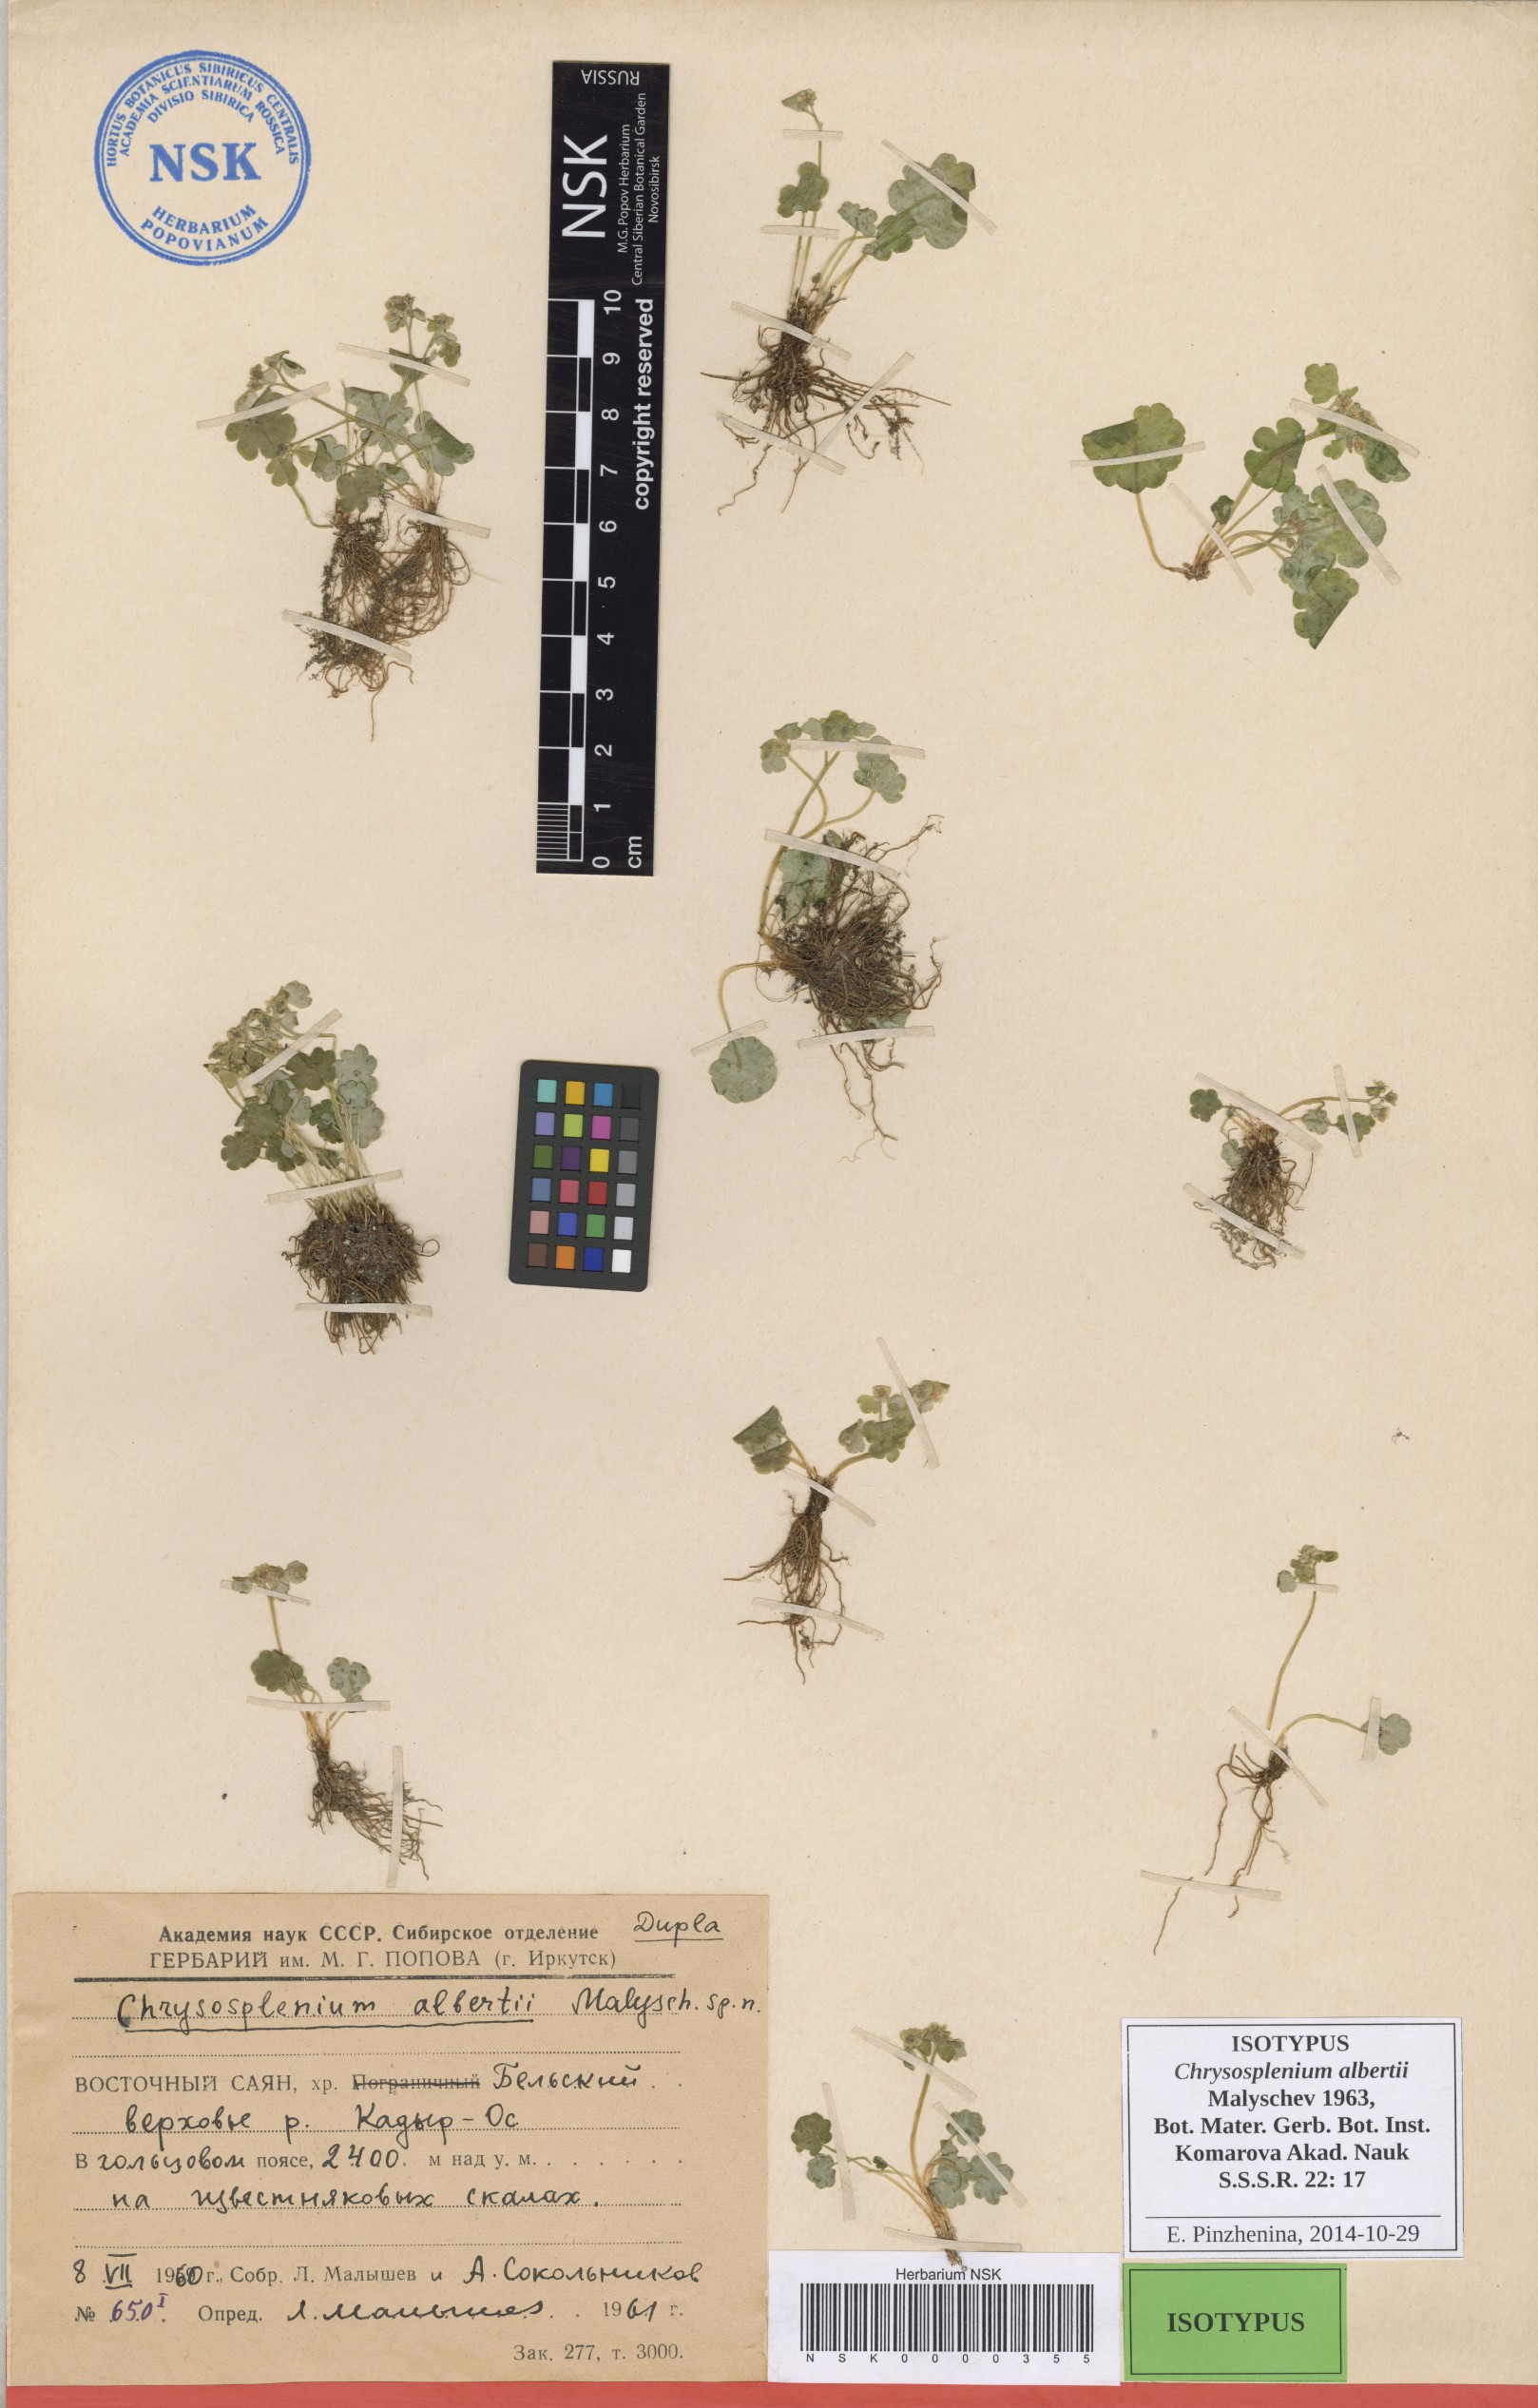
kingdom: Plantae
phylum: Tracheophyta
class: Magnoliopsida
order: Saxifragales
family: Saxifragaceae
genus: Chrysosplenium
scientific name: Chrysosplenium albertii
